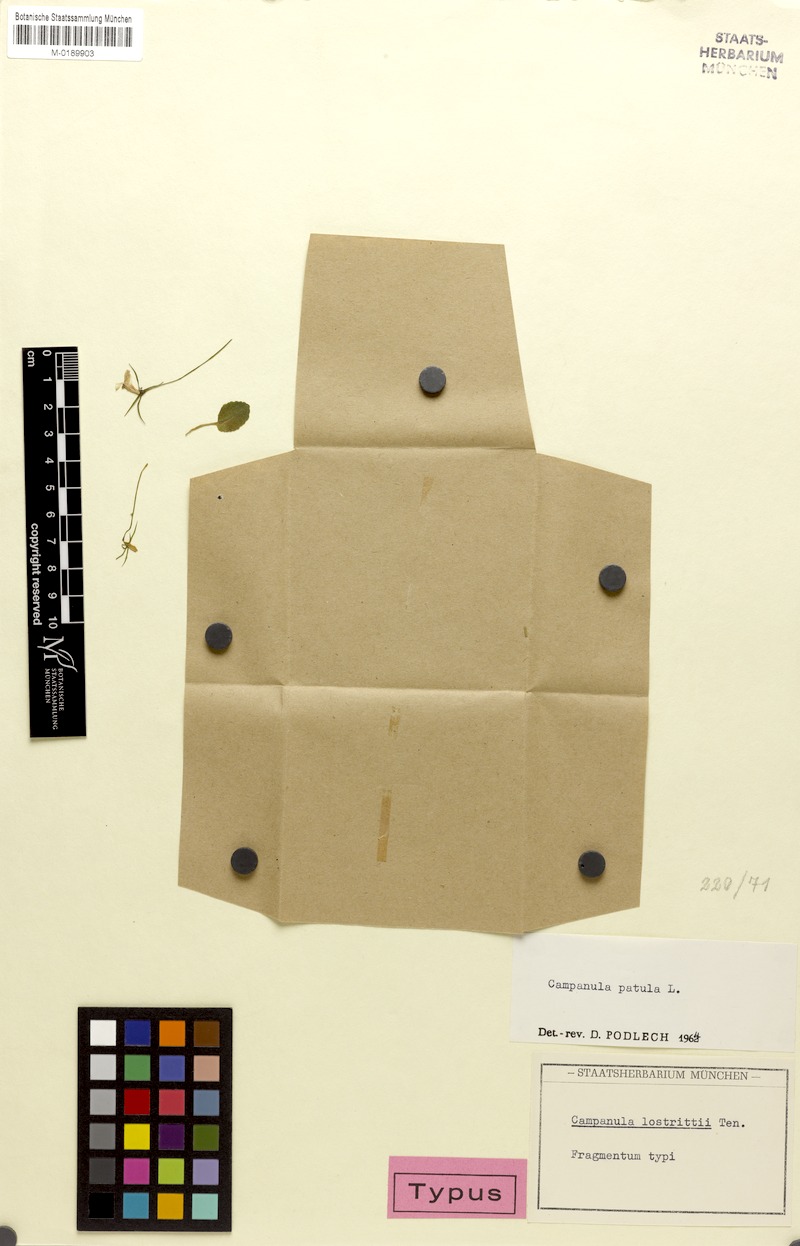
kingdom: Plantae
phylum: Tracheophyta
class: Magnoliopsida
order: Asterales
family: Campanulaceae
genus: Campanula
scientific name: Campanula patula
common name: Spreading bellflower
